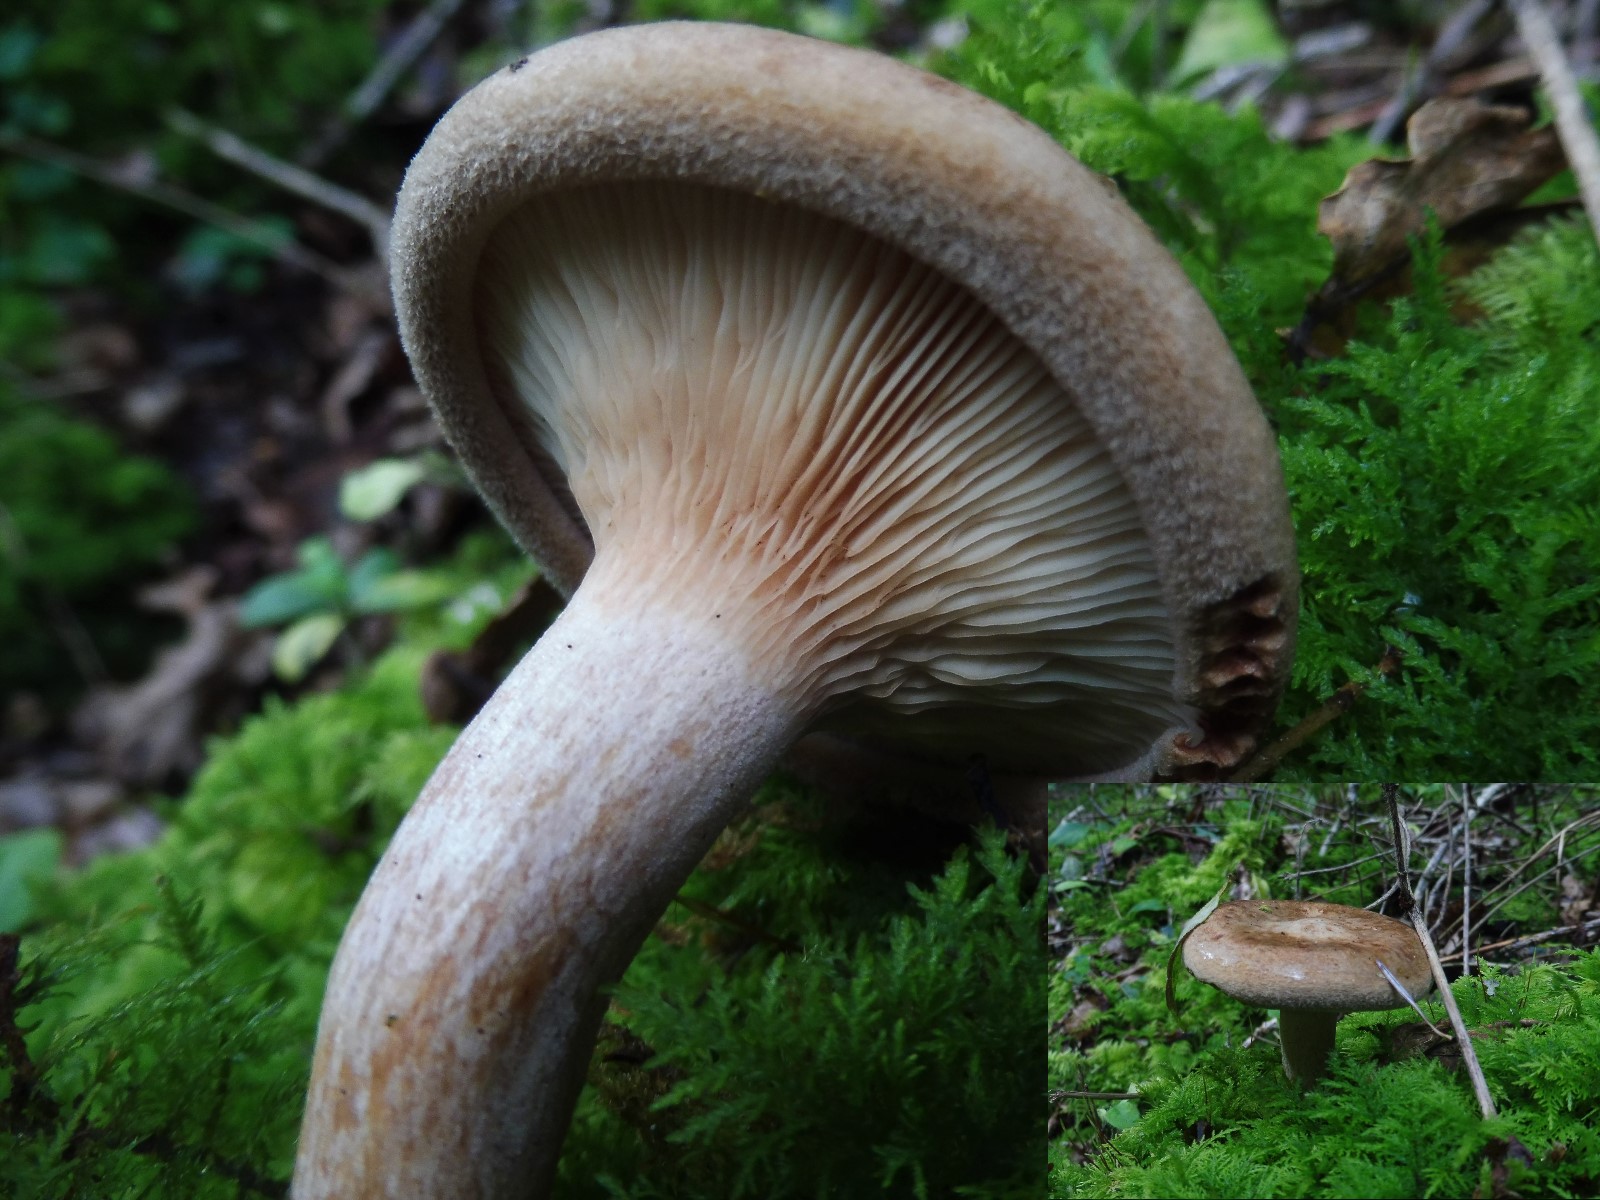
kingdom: Fungi
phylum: Basidiomycota
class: Agaricomycetes
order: Boletales
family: Paxillaceae
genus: Paxillus
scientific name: Paxillus involutus
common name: almindelig netbladhat
